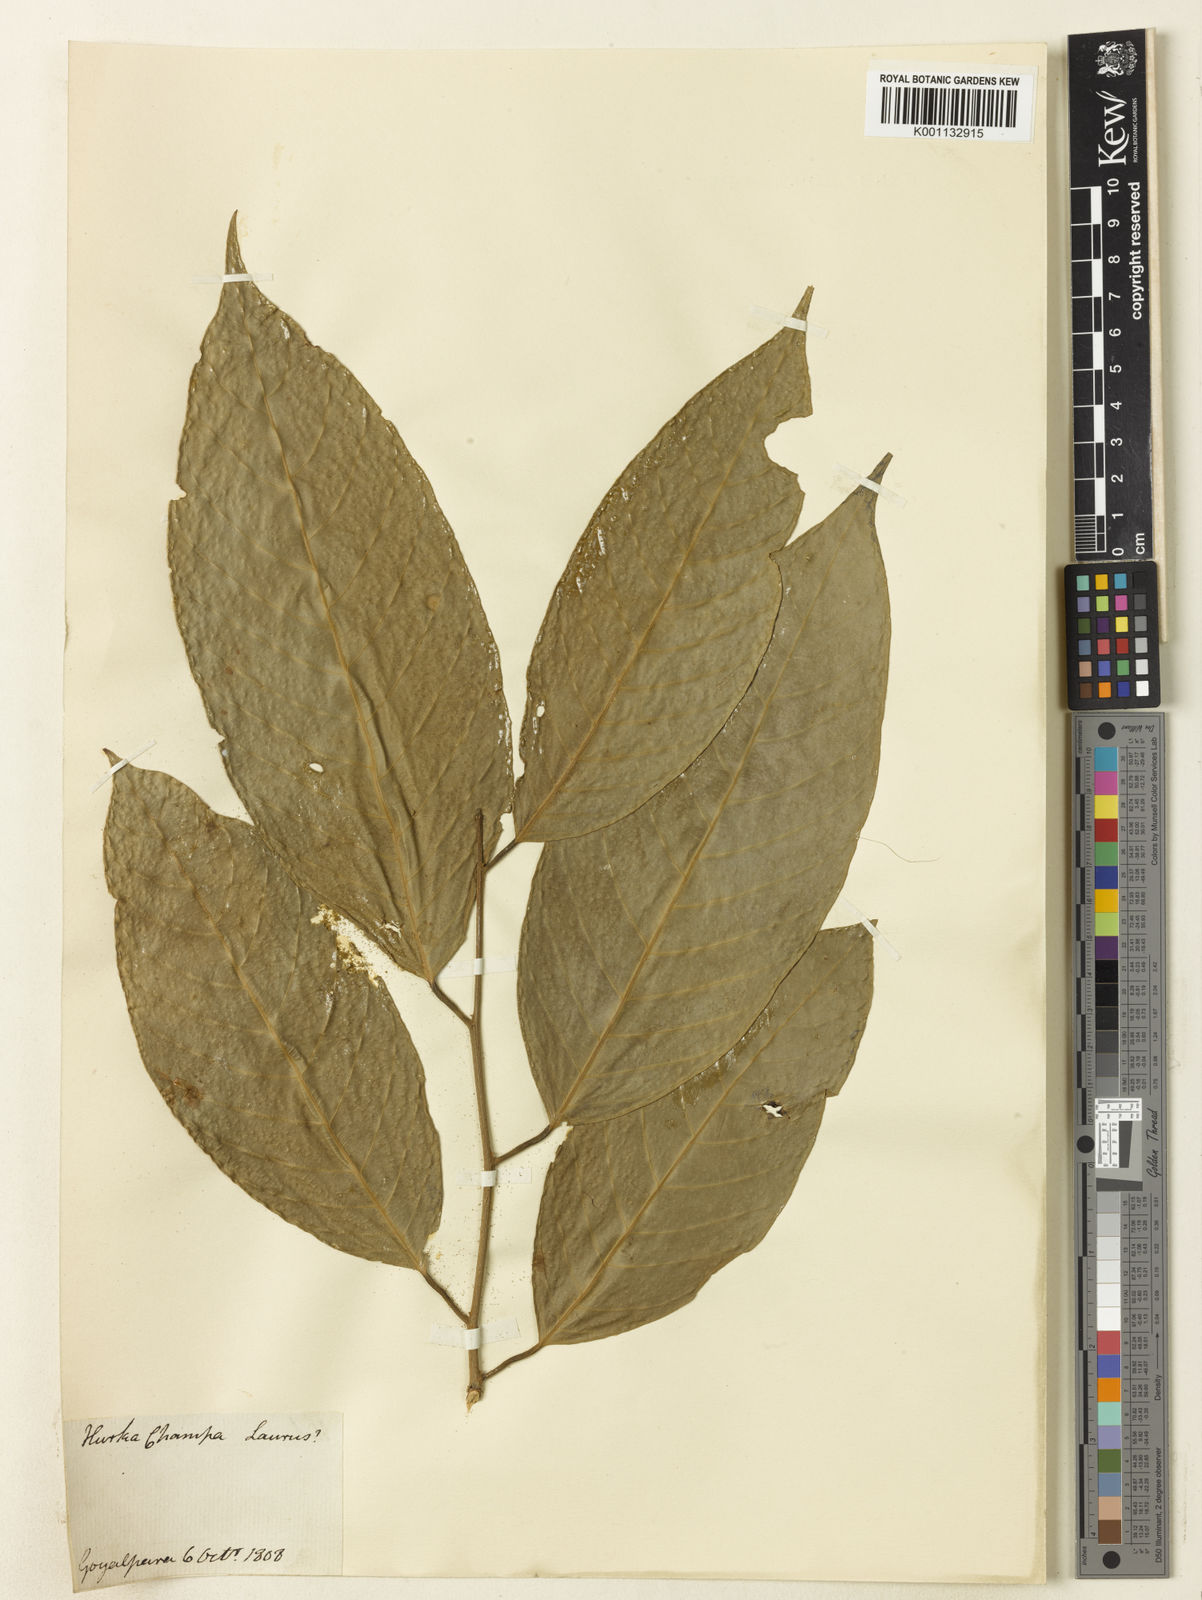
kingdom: Plantae
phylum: Tracheophyta
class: Magnoliopsida
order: Laurales
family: Lauraceae
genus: Laurus
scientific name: Laurus
